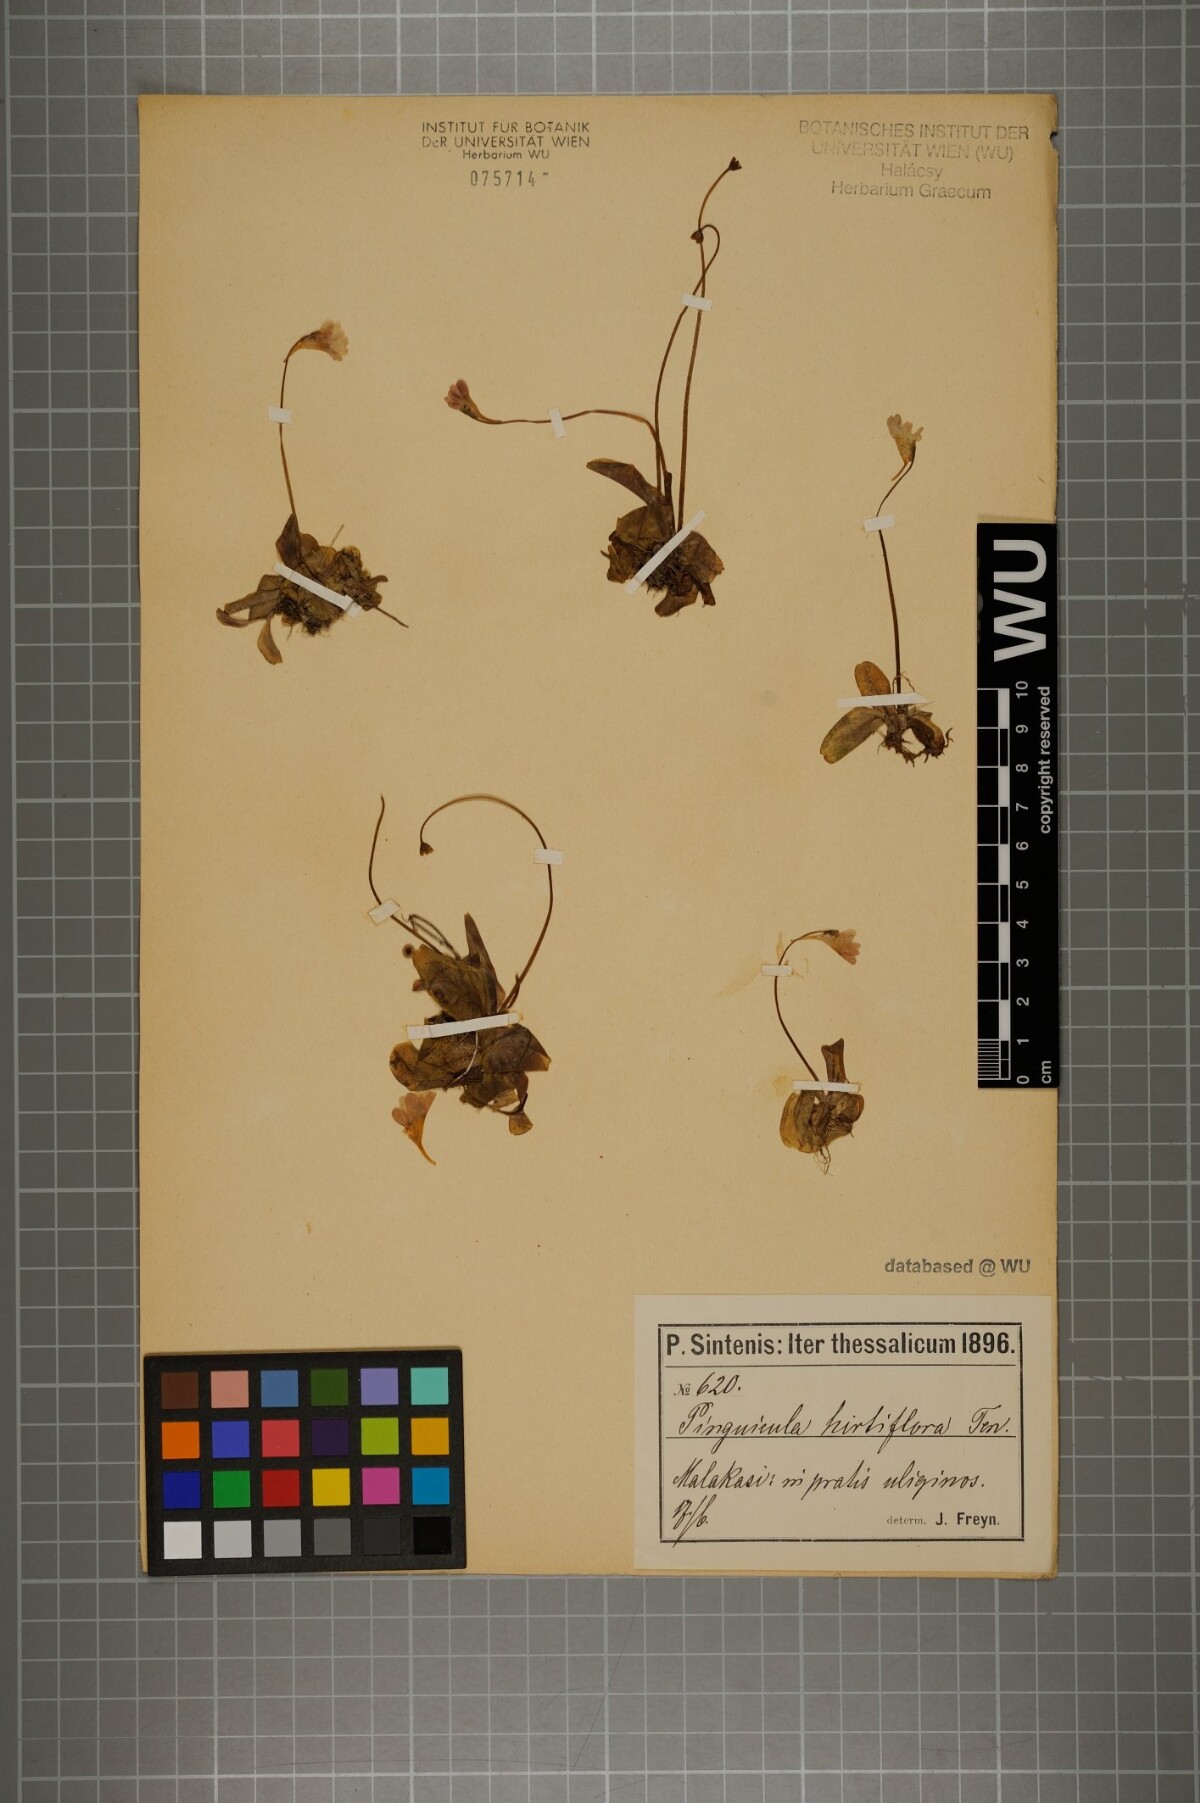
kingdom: Plantae
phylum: Tracheophyta
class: Magnoliopsida
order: Lamiales
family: Lentibulariaceae
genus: Pinguicula
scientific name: Pinguicula crystallina
